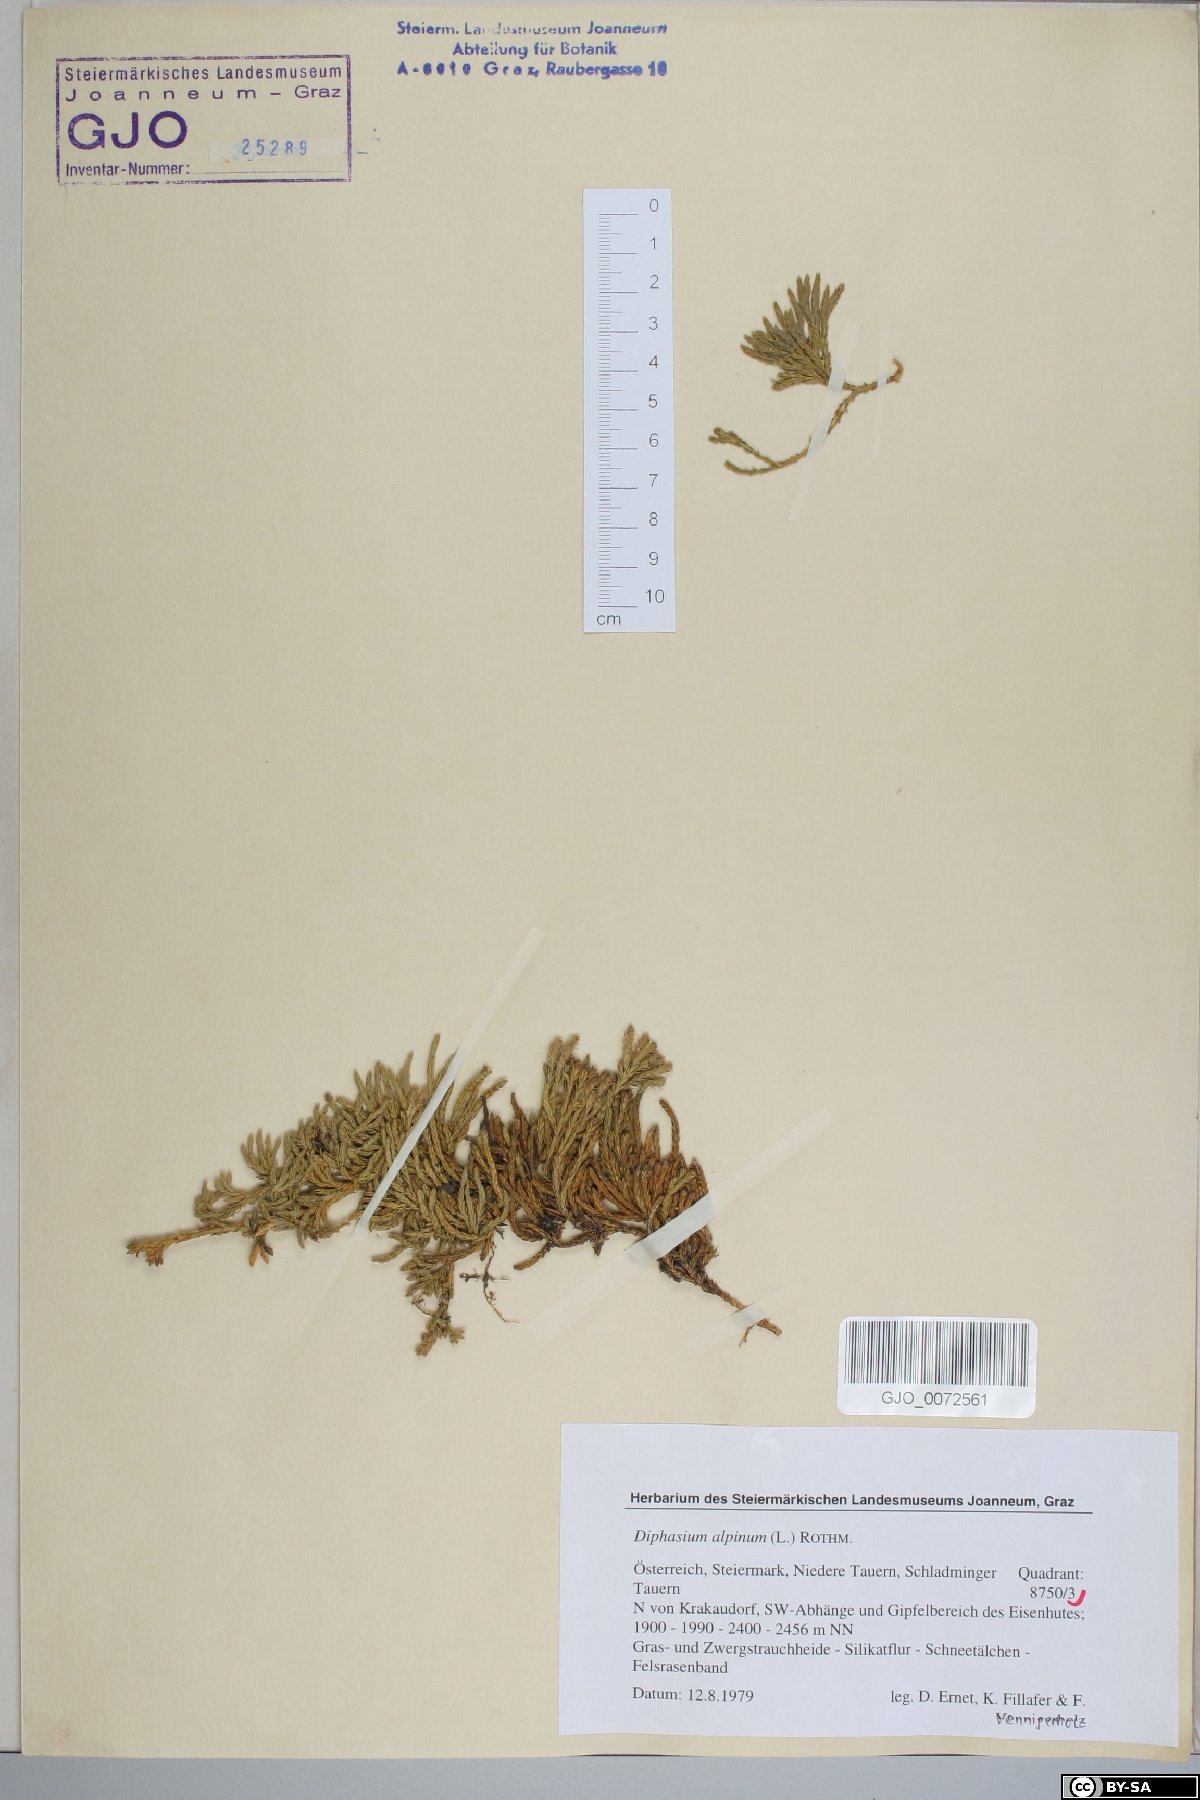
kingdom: Plantae
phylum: Tracheophyta
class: Lycopodiopsida
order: Lycopodiales
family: Lycopodiaceae
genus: Diphasiastrum
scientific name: Diphasiastrum alpinum
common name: Alpine clubmoss
